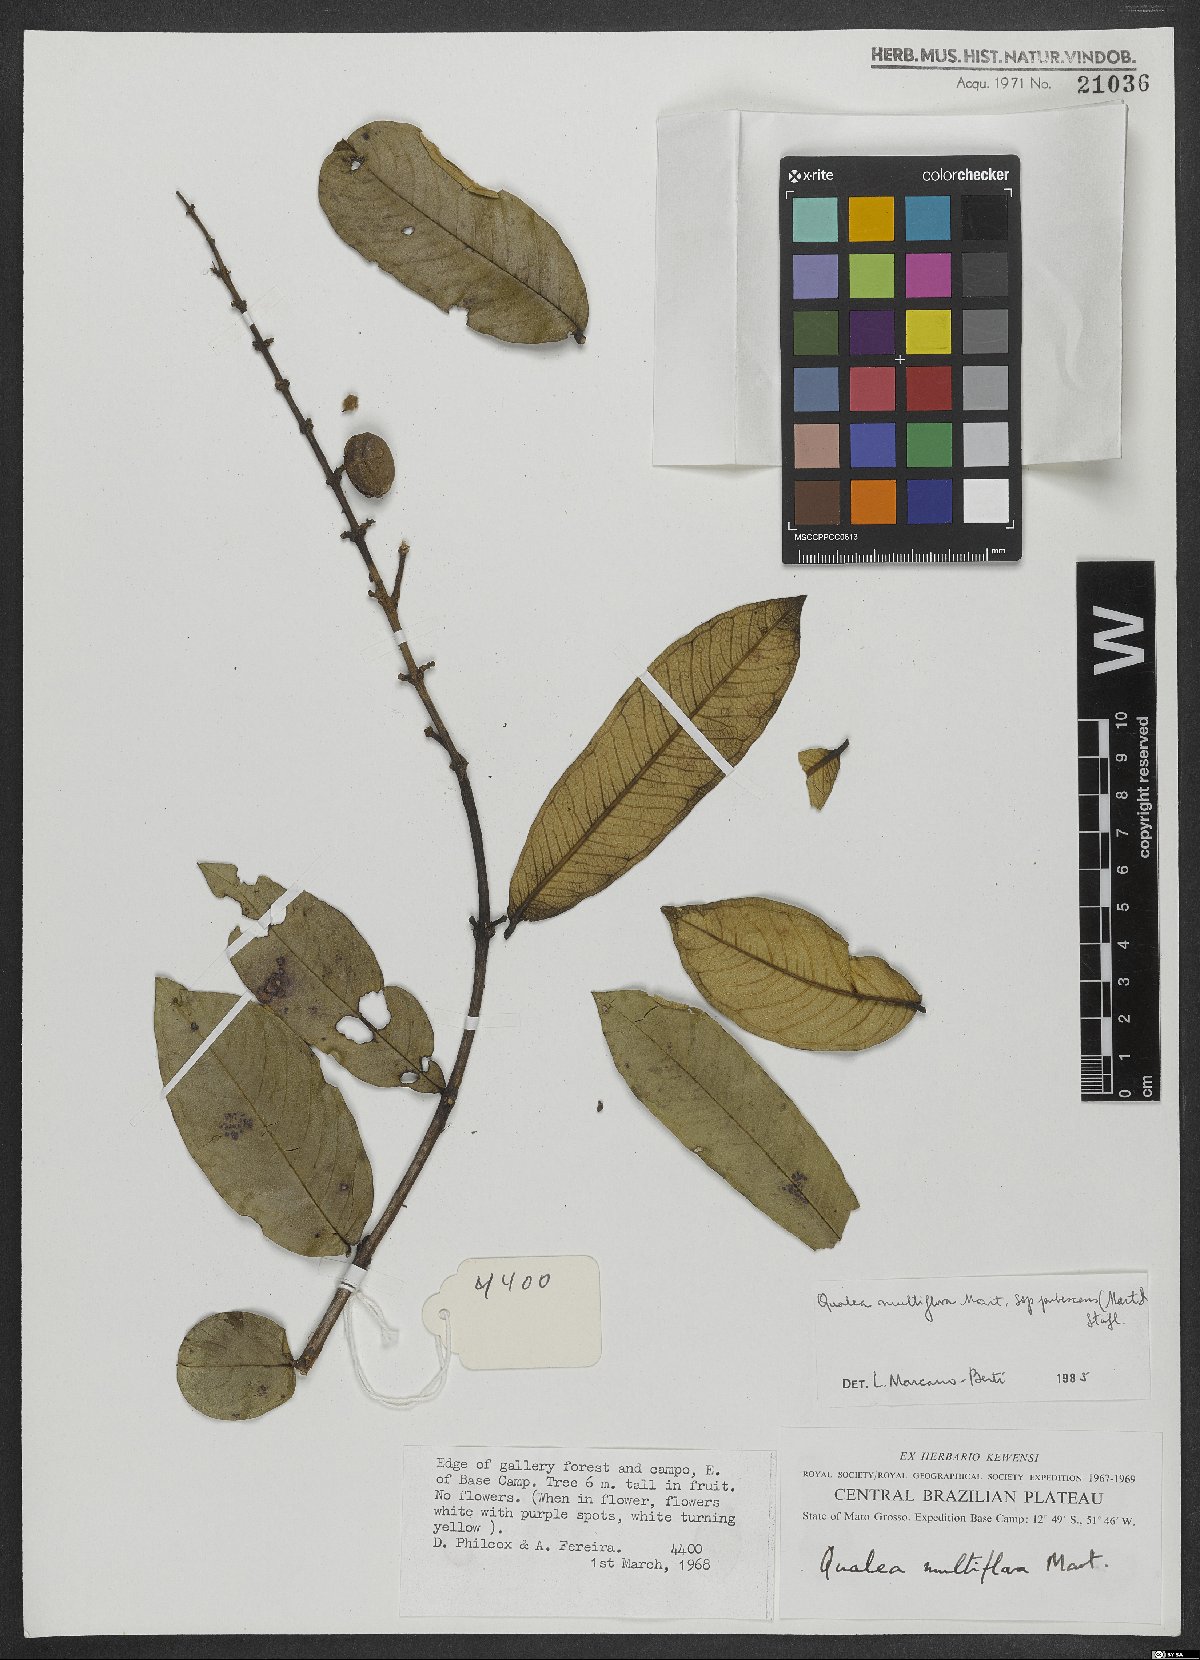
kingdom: Plantae
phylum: Tracheophyta
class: Magnoliopsida
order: Myrtales
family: Vochysiaceae
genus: Qualea
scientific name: Qualea multiflora
